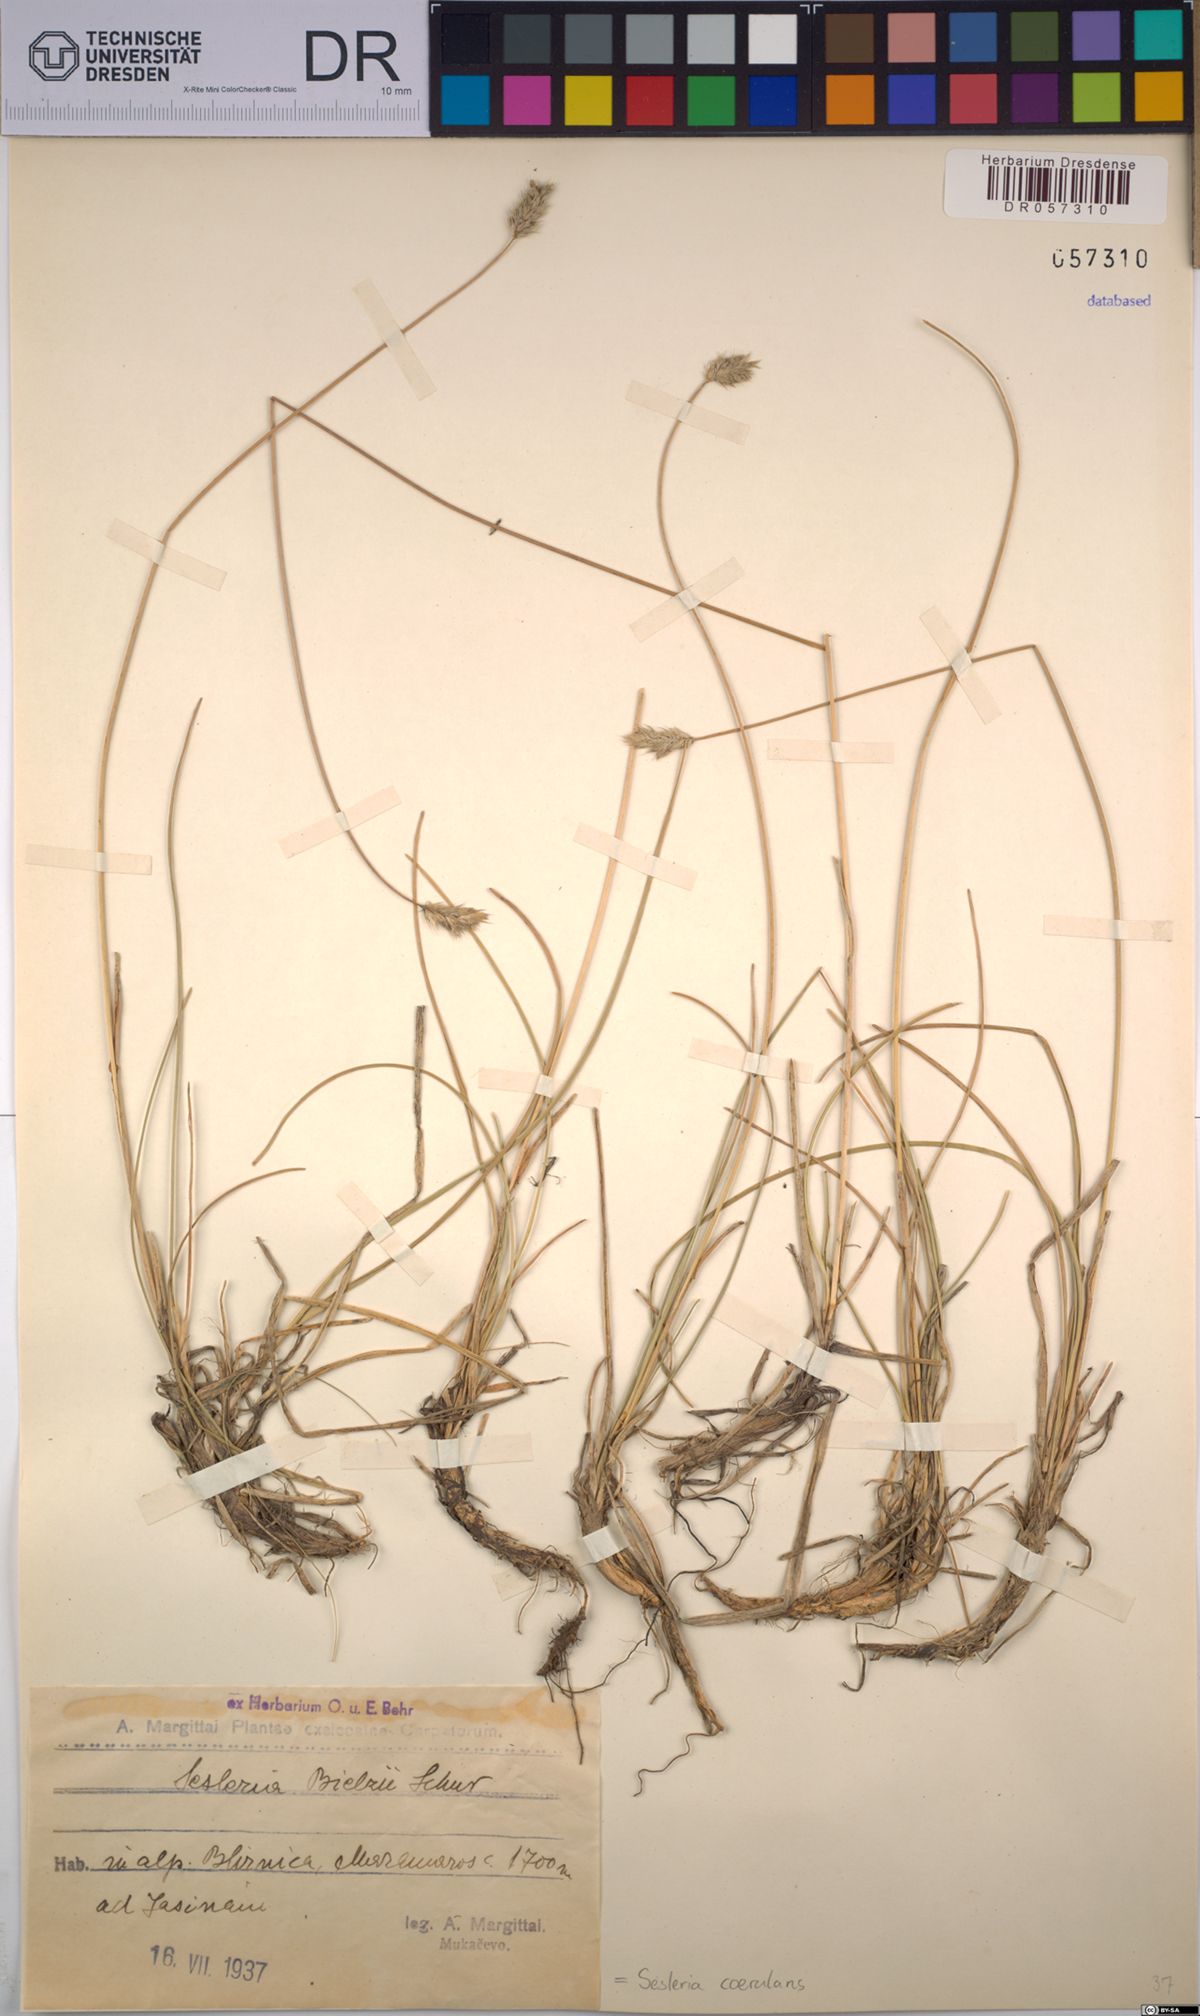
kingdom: Plantae
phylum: Tracheophyta
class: Liliopsida
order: Poales
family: Poaceae
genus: Sesleria
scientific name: Sesleria coerulans
